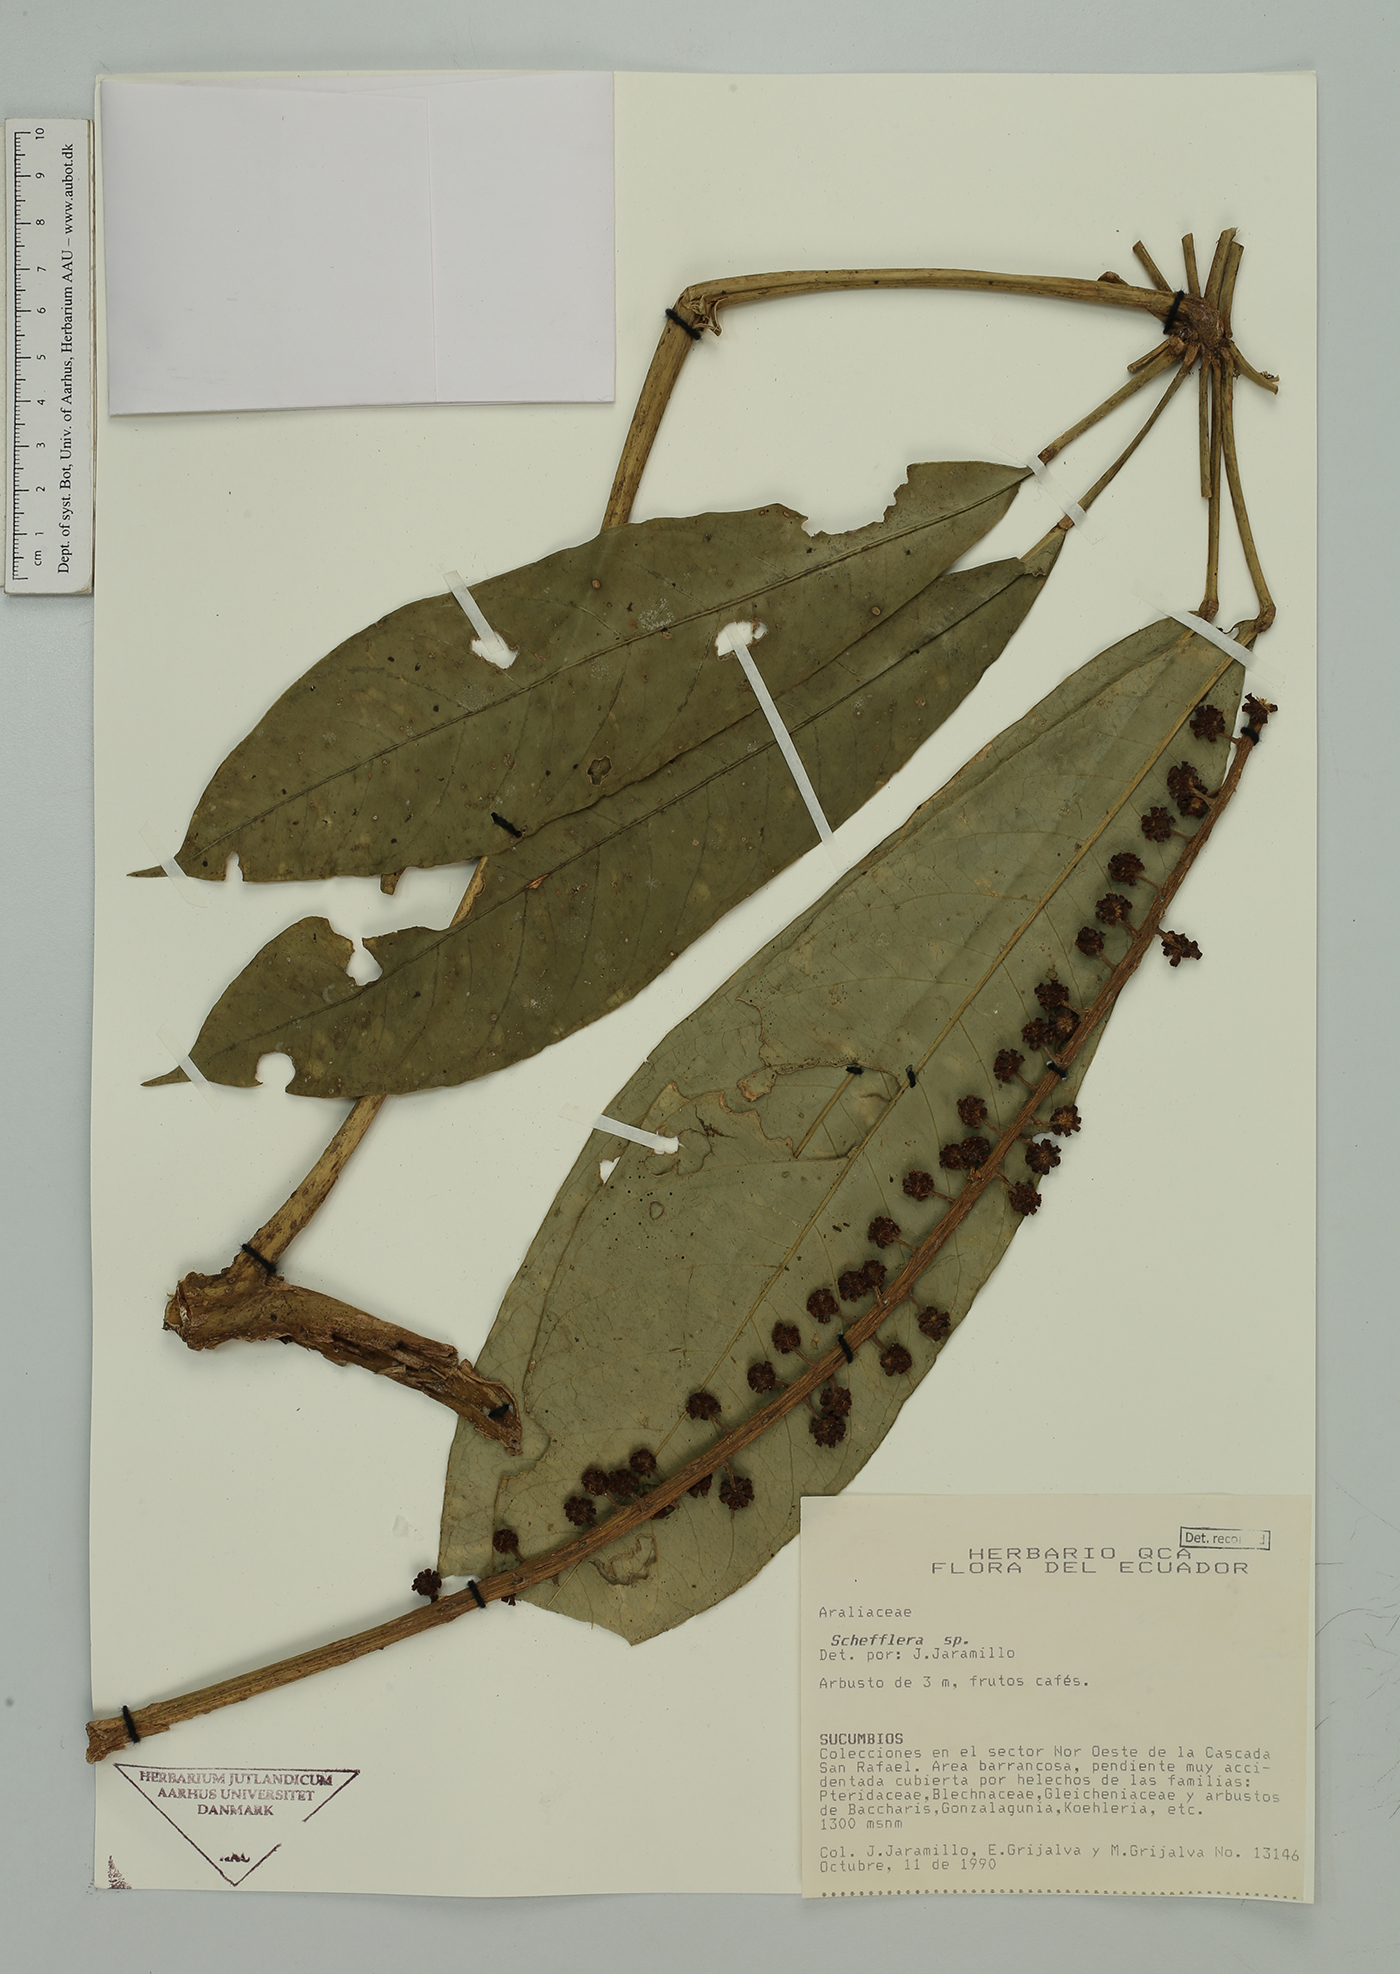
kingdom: Plantae
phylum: Tracheophyta
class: Magnoliopsida
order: Apiales
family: Araliaceae
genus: Sciodaphyllum
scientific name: Sciodaphyllum dielsii
